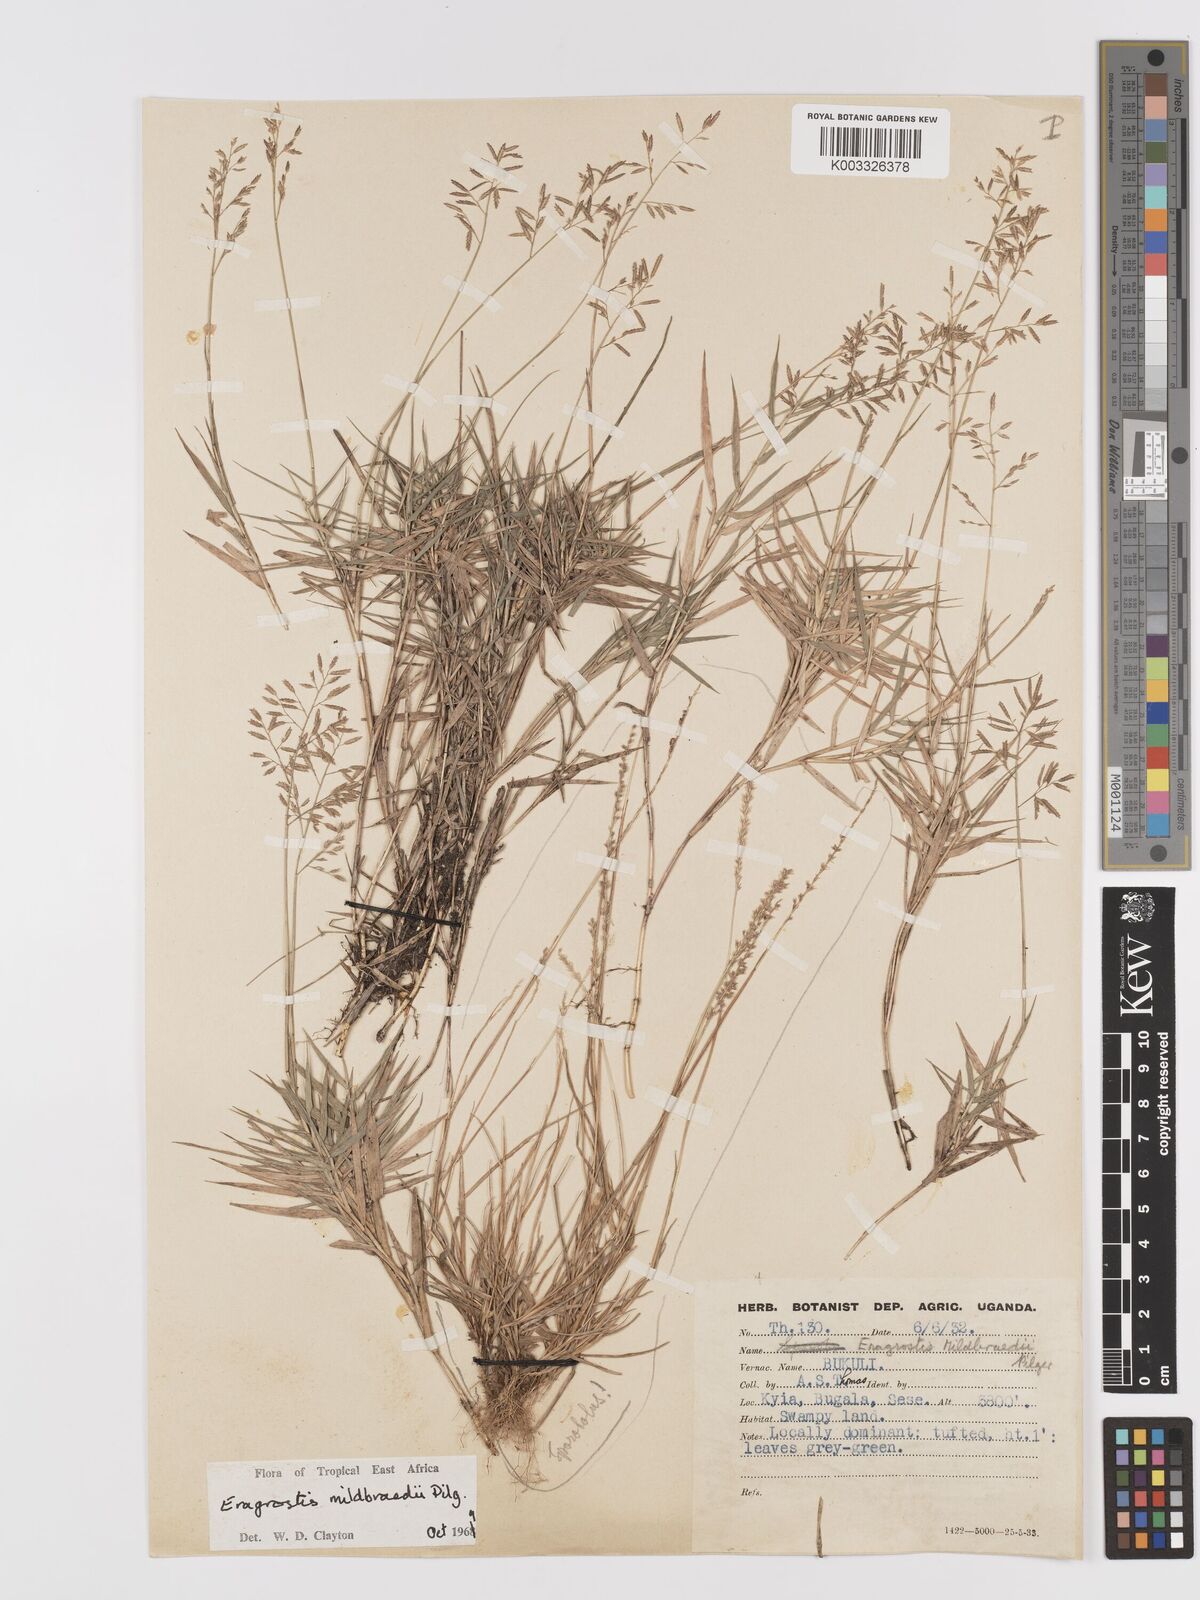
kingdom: Plantae
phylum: Tracheophyta
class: Liliopsida
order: Poales
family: Poaceae
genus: Eragrostis
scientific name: Eragrostis mildbraedii
